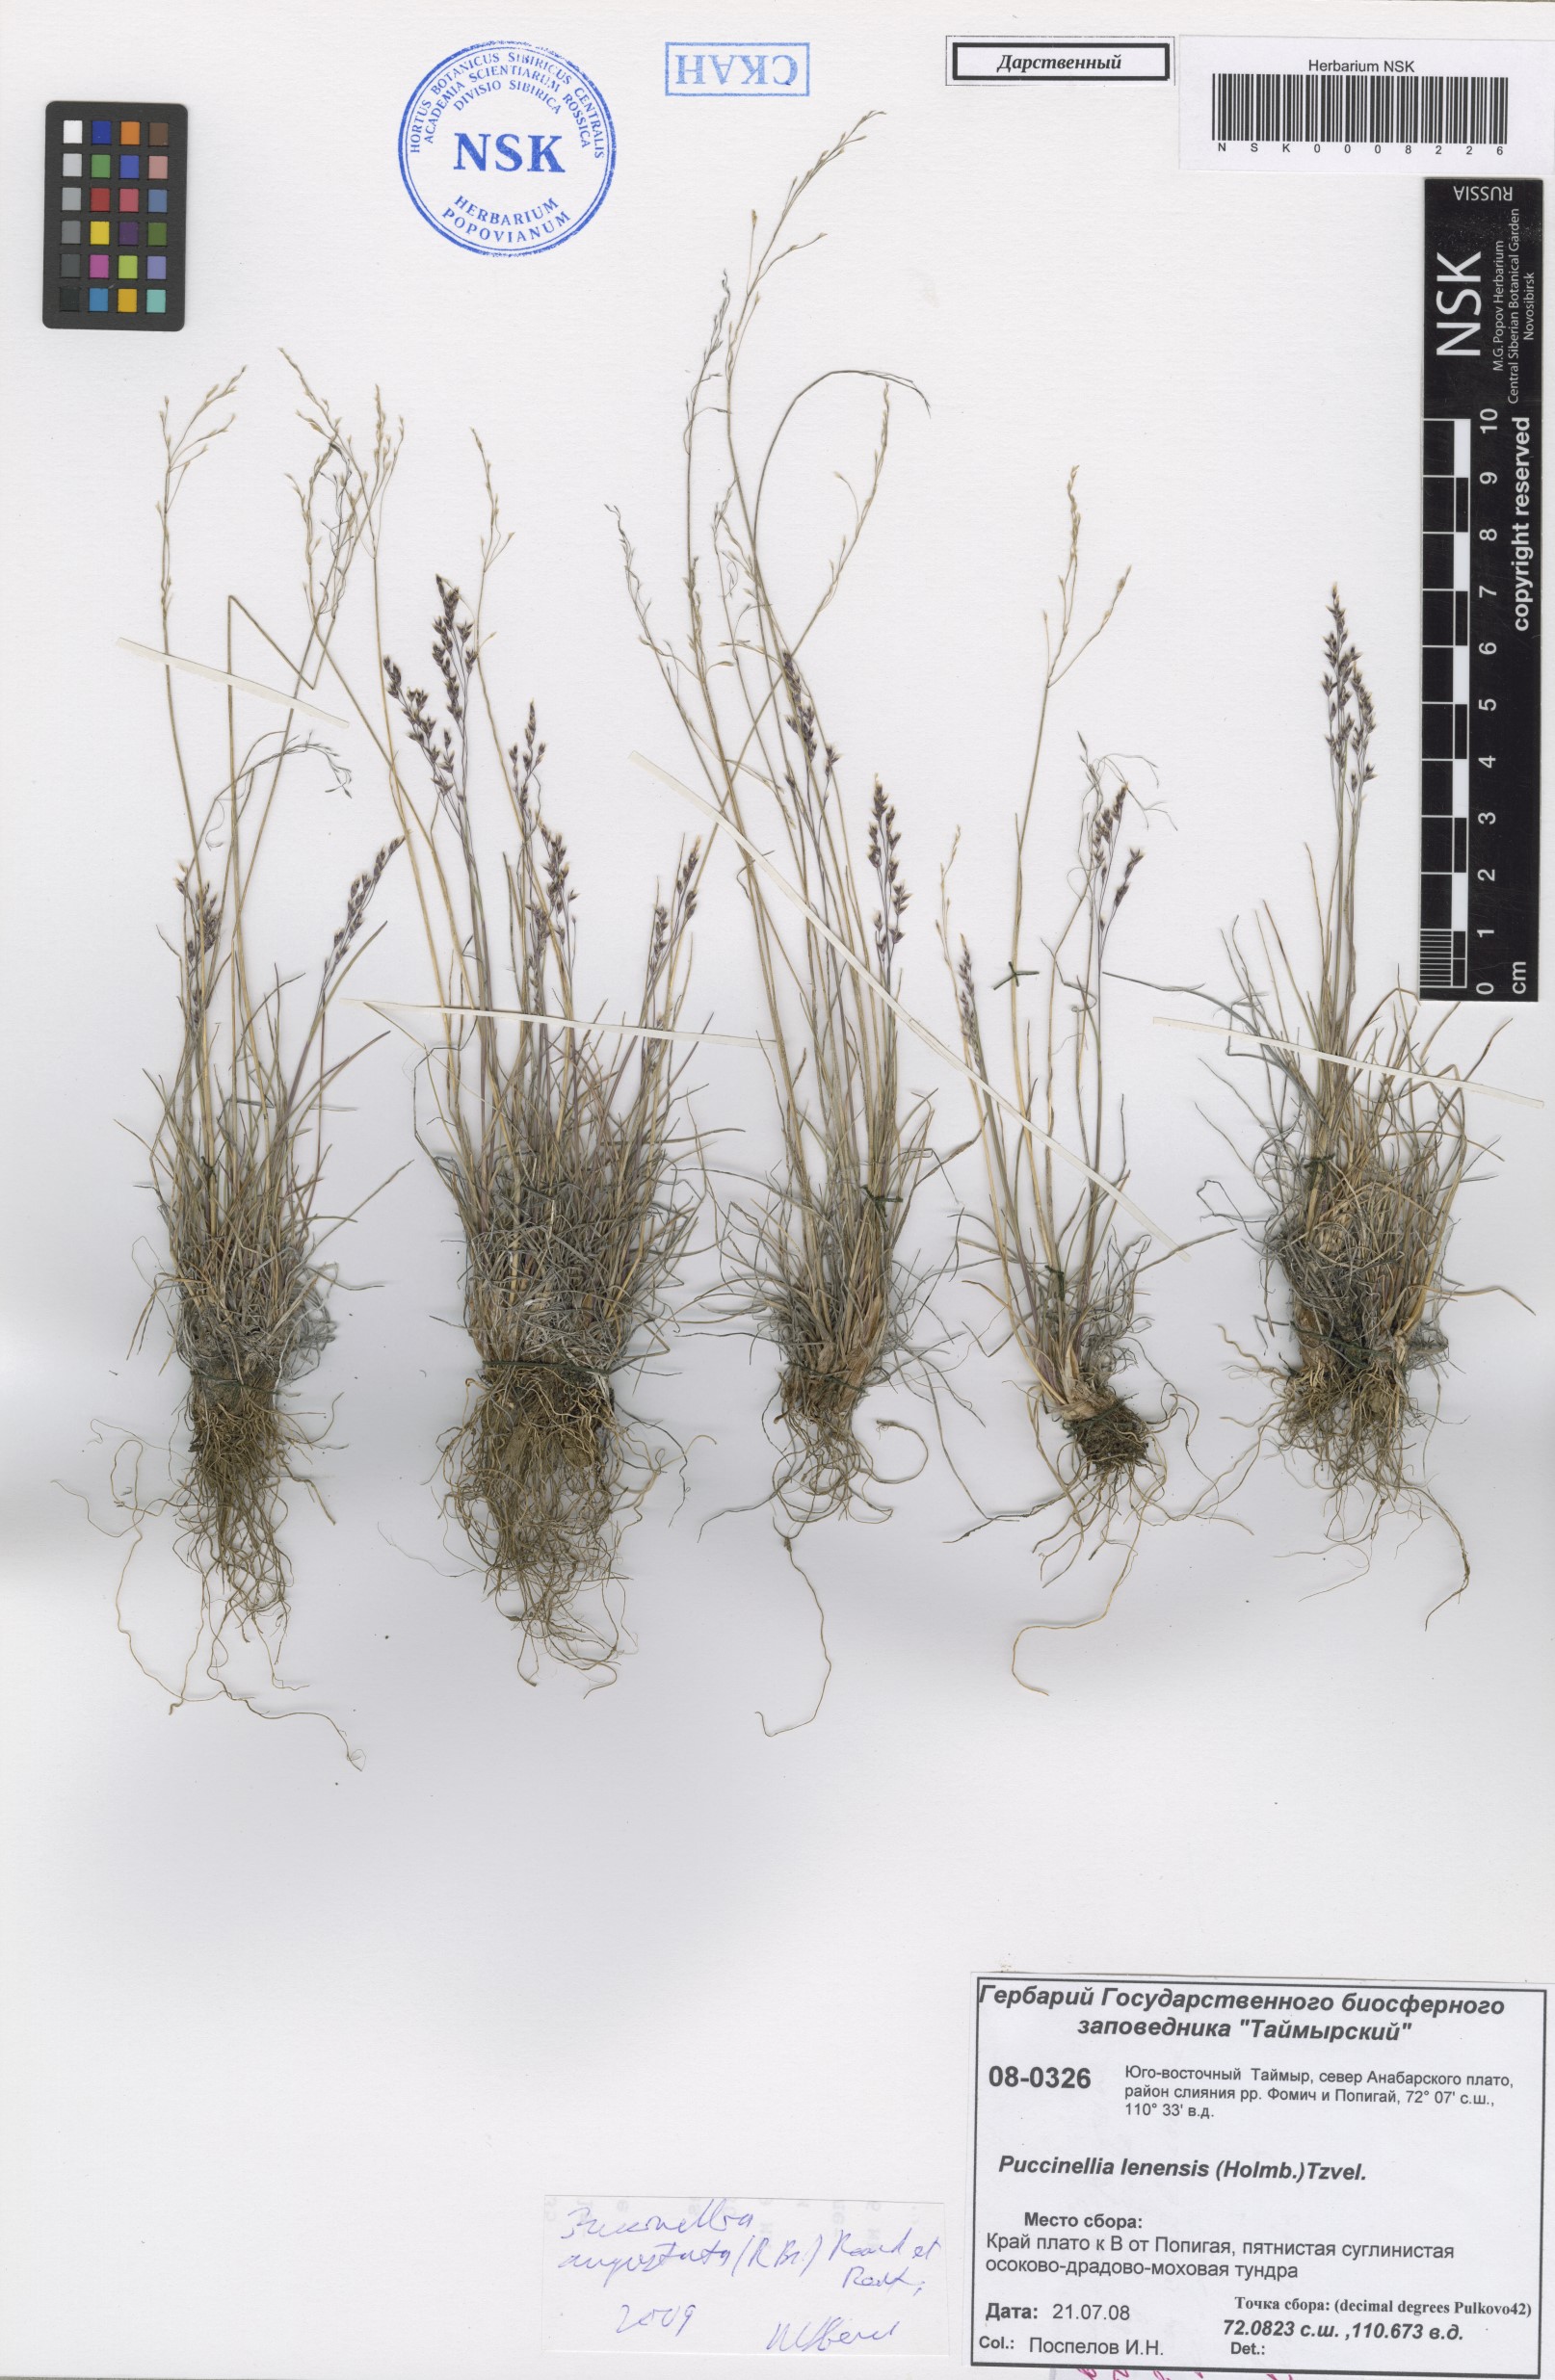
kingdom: Plantae
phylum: Tracheophyta
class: Liliopsida
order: Poales
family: Poaceae
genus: Puccinellia
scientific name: Puccinellia angustata
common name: Narrow alkaligrass
